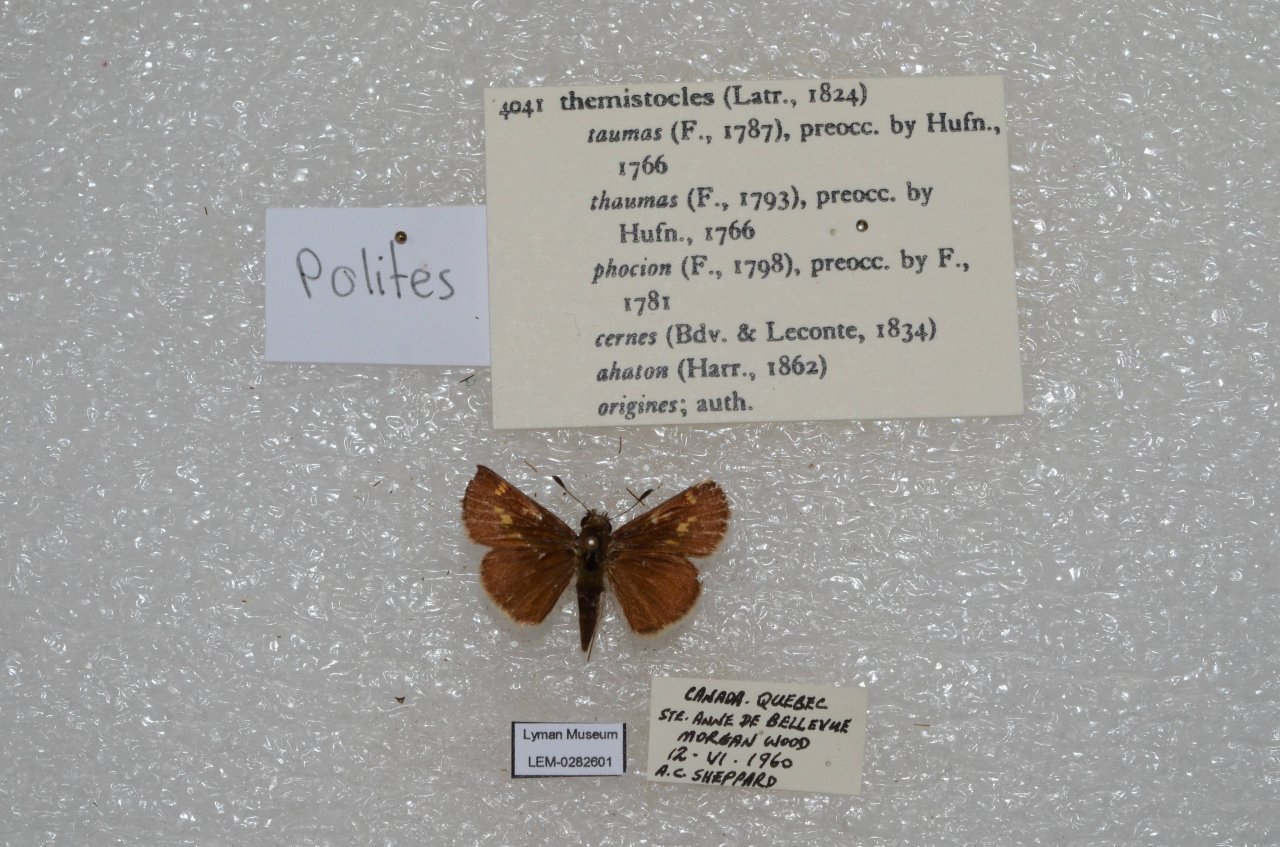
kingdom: Animalia
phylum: Arthropoda
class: Insecta
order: Lepidoptera
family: Hesperiidae
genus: Polites
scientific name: Polites themistocles
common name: Tawny-edged Skipper
